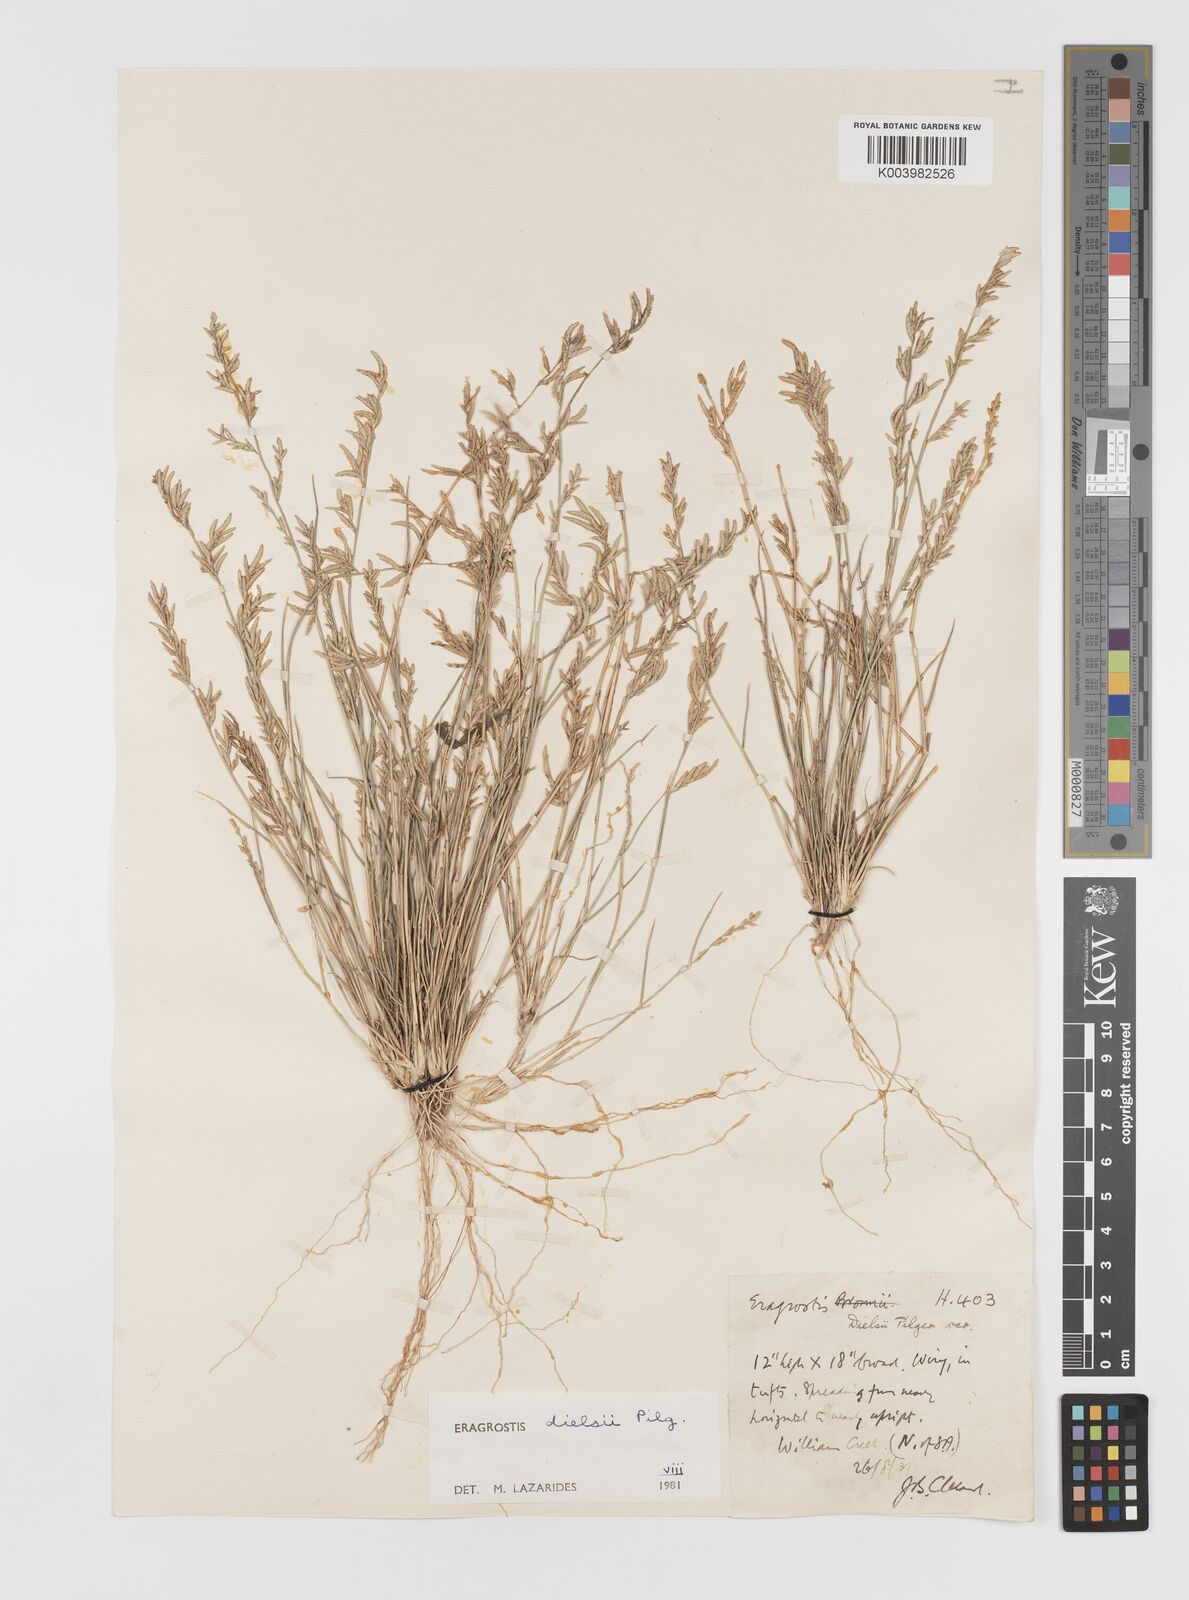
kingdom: Plantae
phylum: Tracheophyta
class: Liliopsida
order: Poales
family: Poaceae
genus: Eragrostis
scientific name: Eragrostis dielsii
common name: Lovegrass
